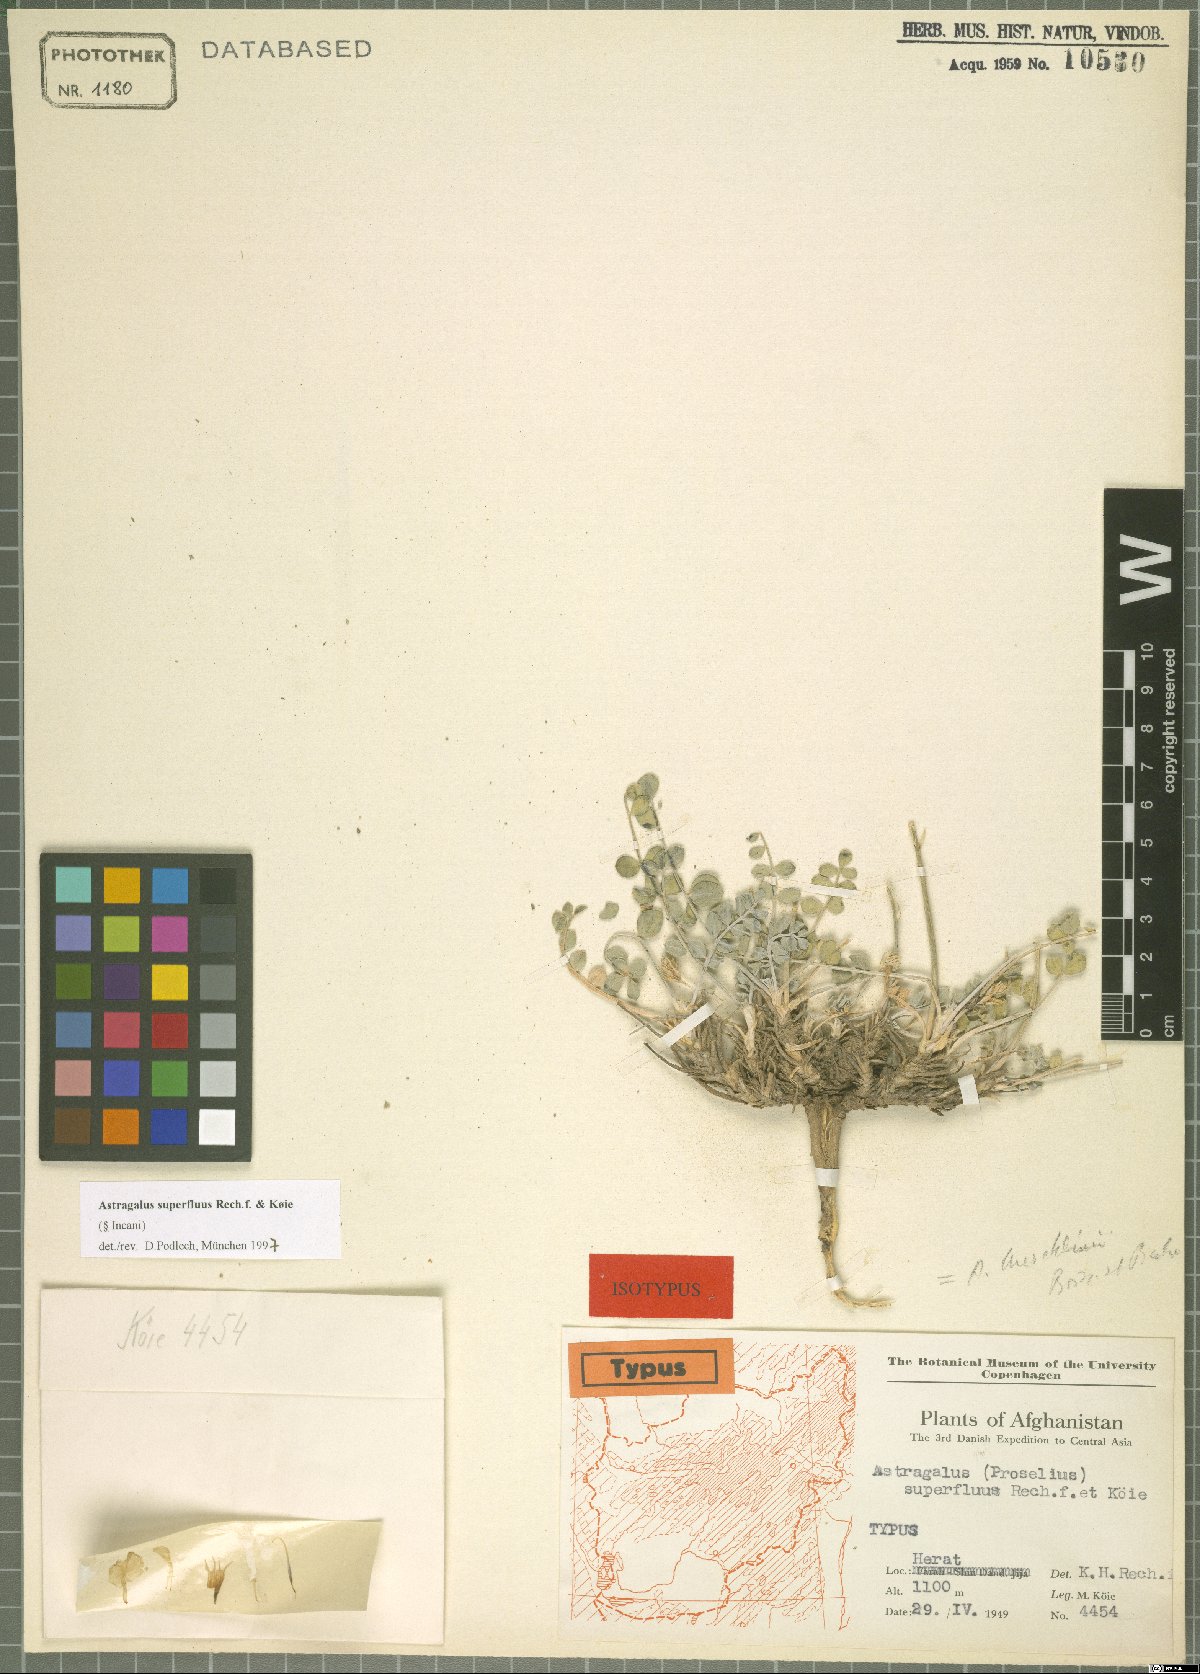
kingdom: Plantae
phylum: Tracheophyta
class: Magnoliopsida
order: Fabales
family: Fabaceae
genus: Astragalus
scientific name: Astragalus superfluus
